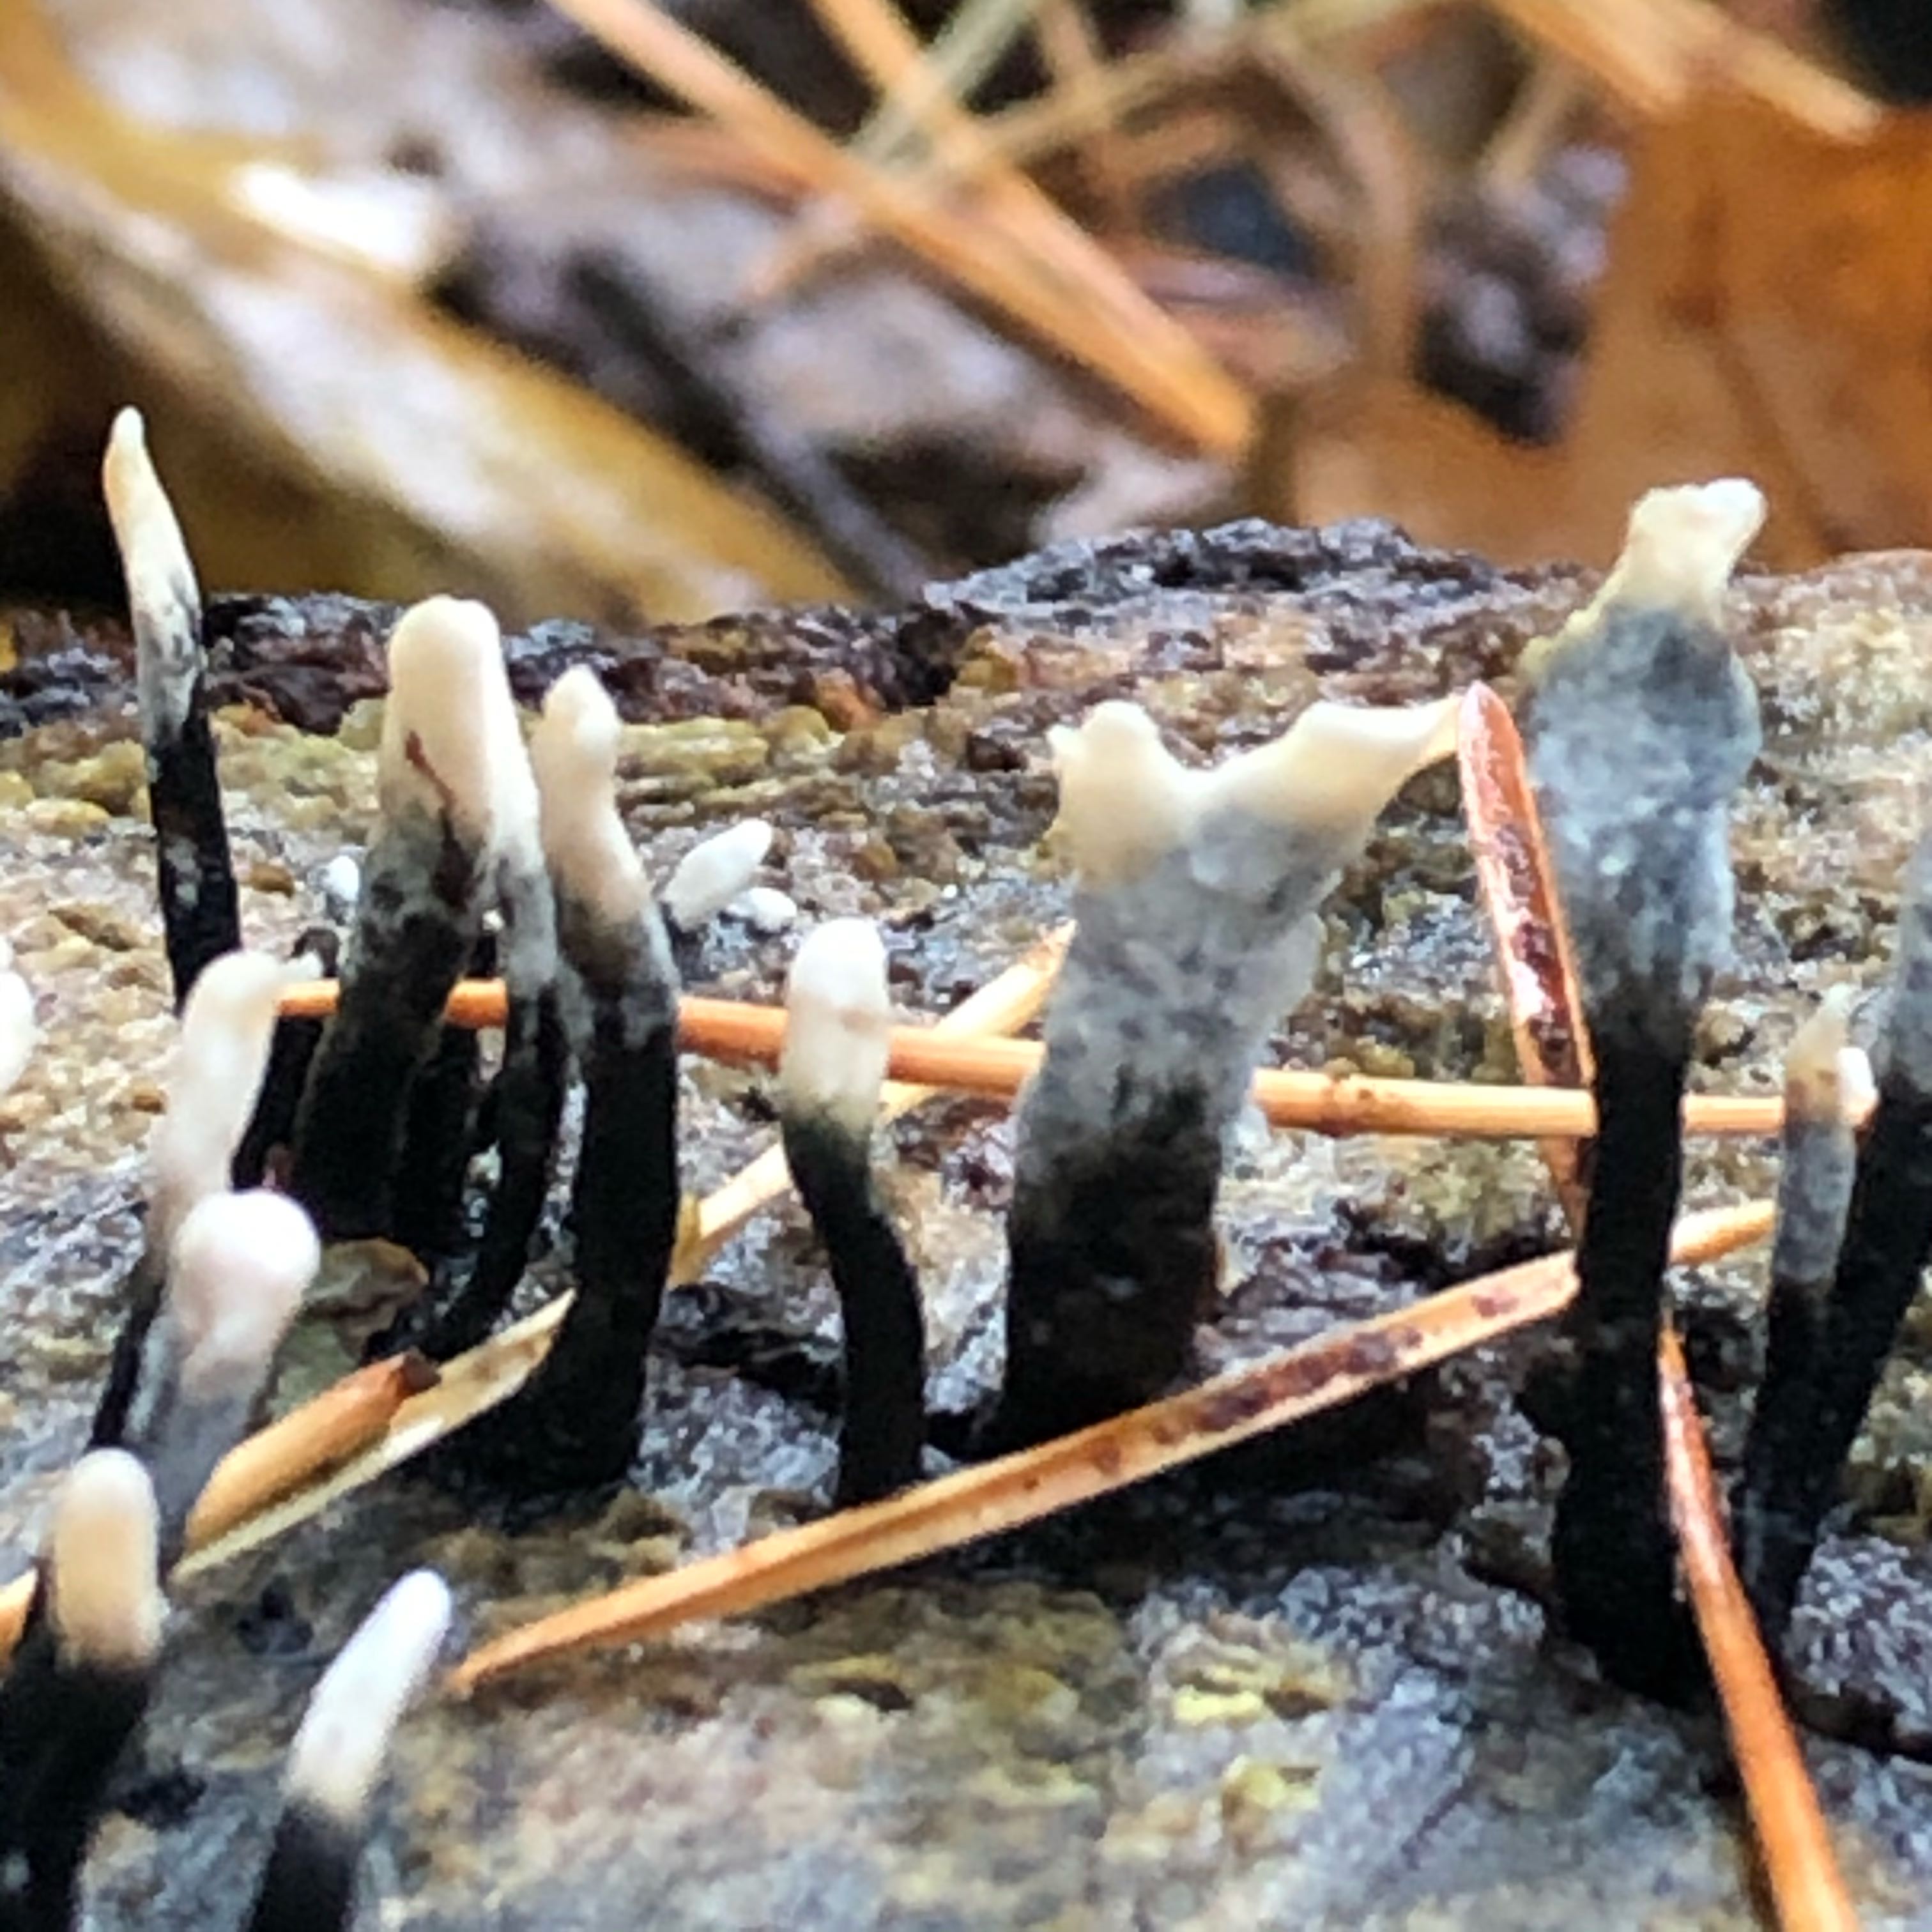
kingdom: Fungi
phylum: Ascomycota
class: Sordariomycetes
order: Xylariales
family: Xylariaceae
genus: Xylaria
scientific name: Xylaria hypoxylon
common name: grenet stødsvamp
